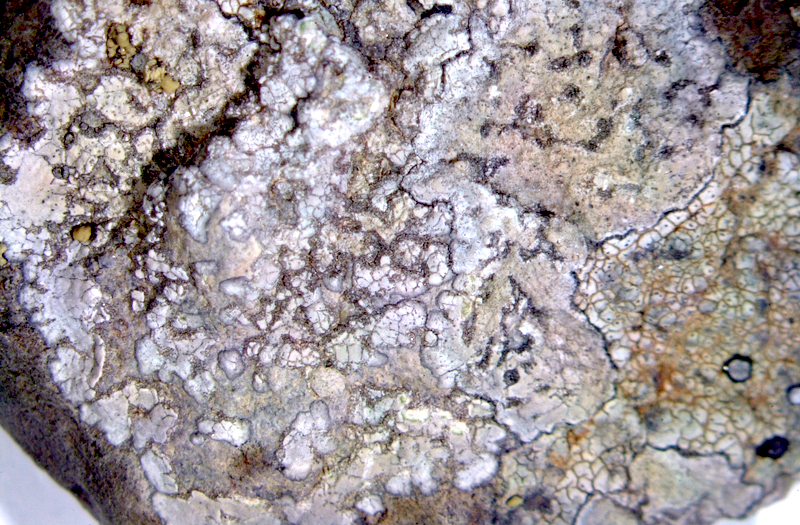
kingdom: Fungi
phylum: Ascomycota
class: Lecanoromycetes
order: Caliciales
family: Caliciaceae
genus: Buellia
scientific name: Buellia
